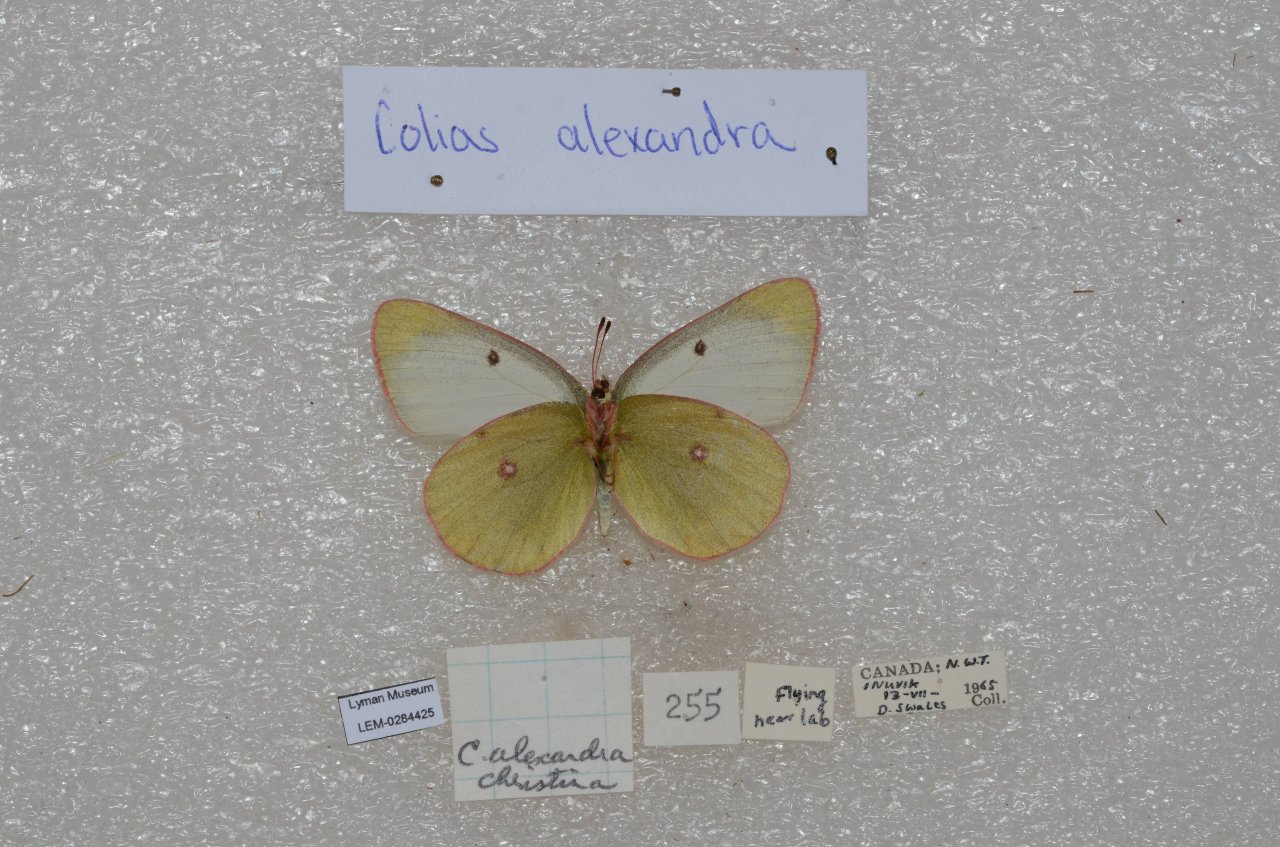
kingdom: Animalia
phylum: Arthropoda
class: Insecta
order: Lepidoptera
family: Pieridae
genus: Colias
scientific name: Colias
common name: Clouded Yellows
